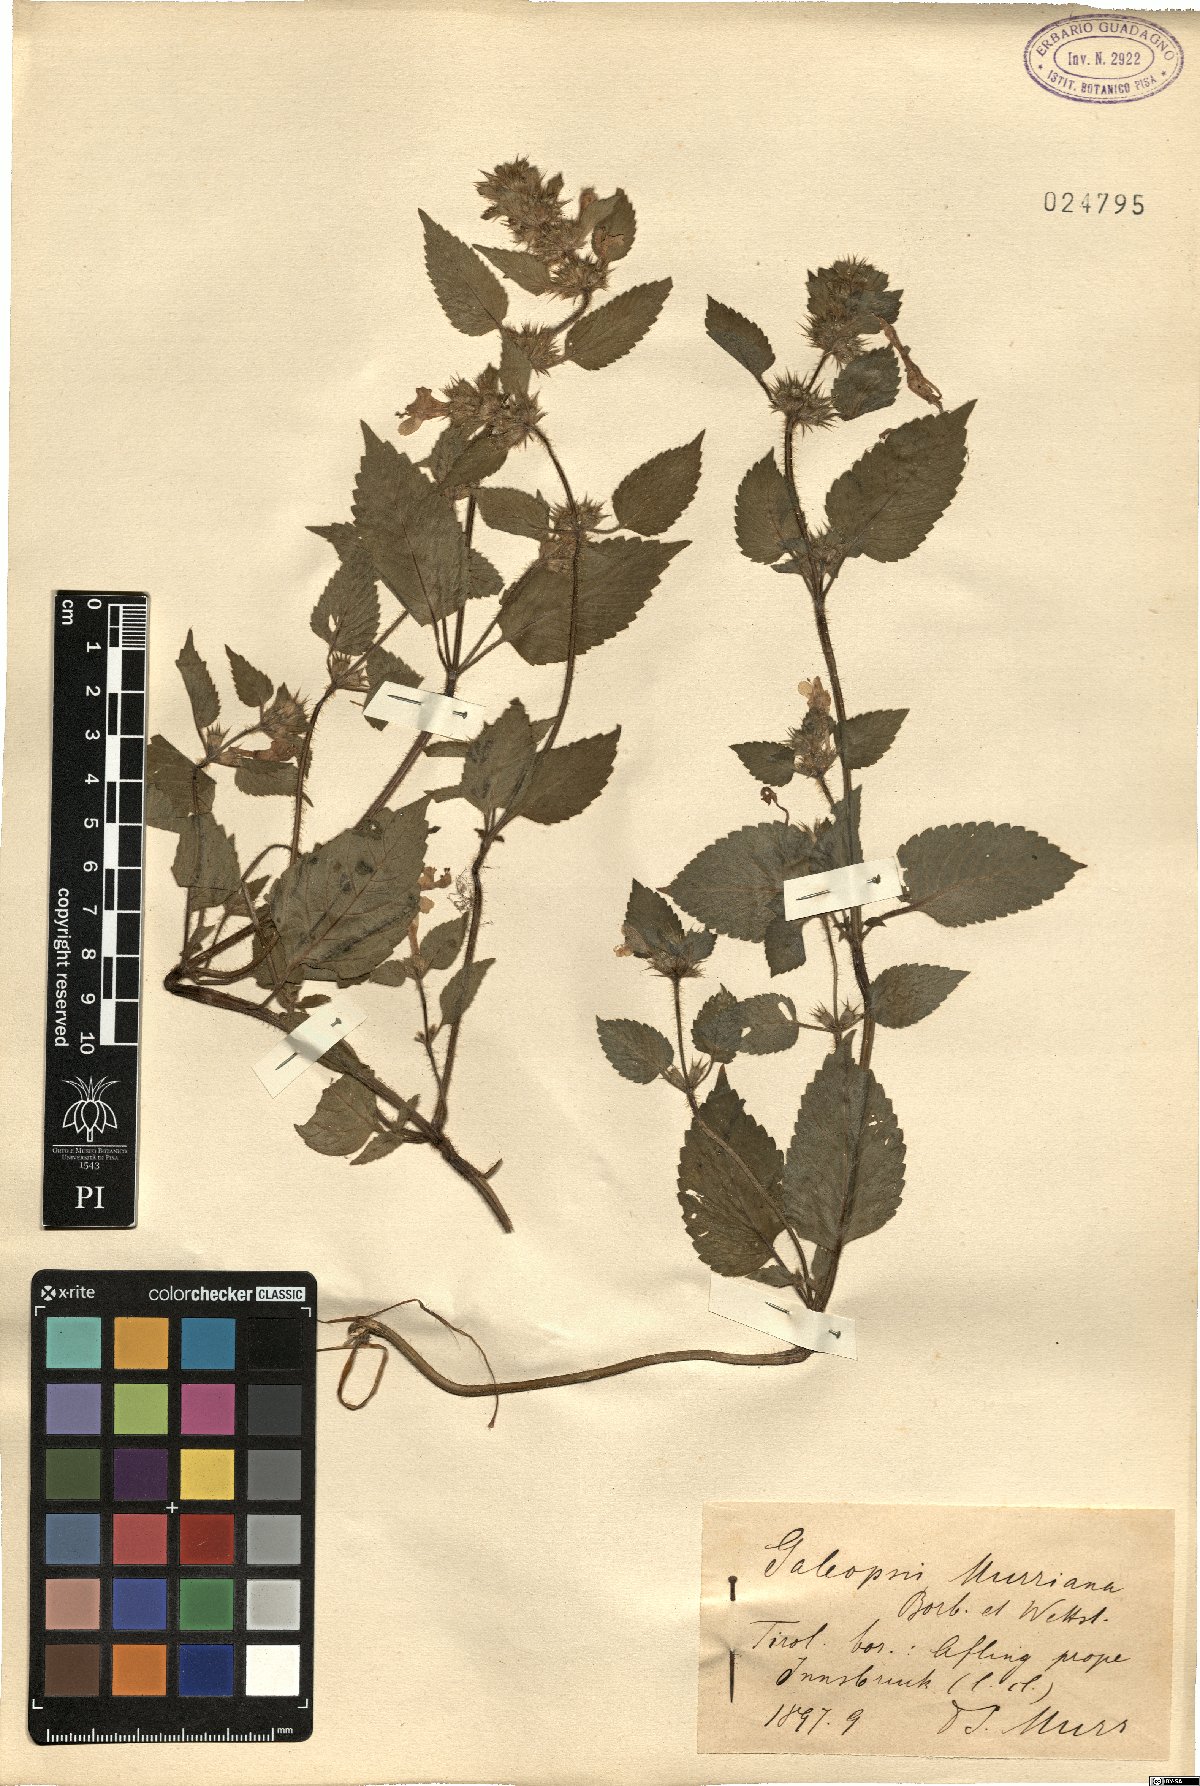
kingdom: Plantae
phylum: Tracheophyta
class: Magnoliopsida
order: Lamiales
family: Lamiaceae
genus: Galeopsis
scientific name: Galeopsis pubescens
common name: Downy hemp-nettle
